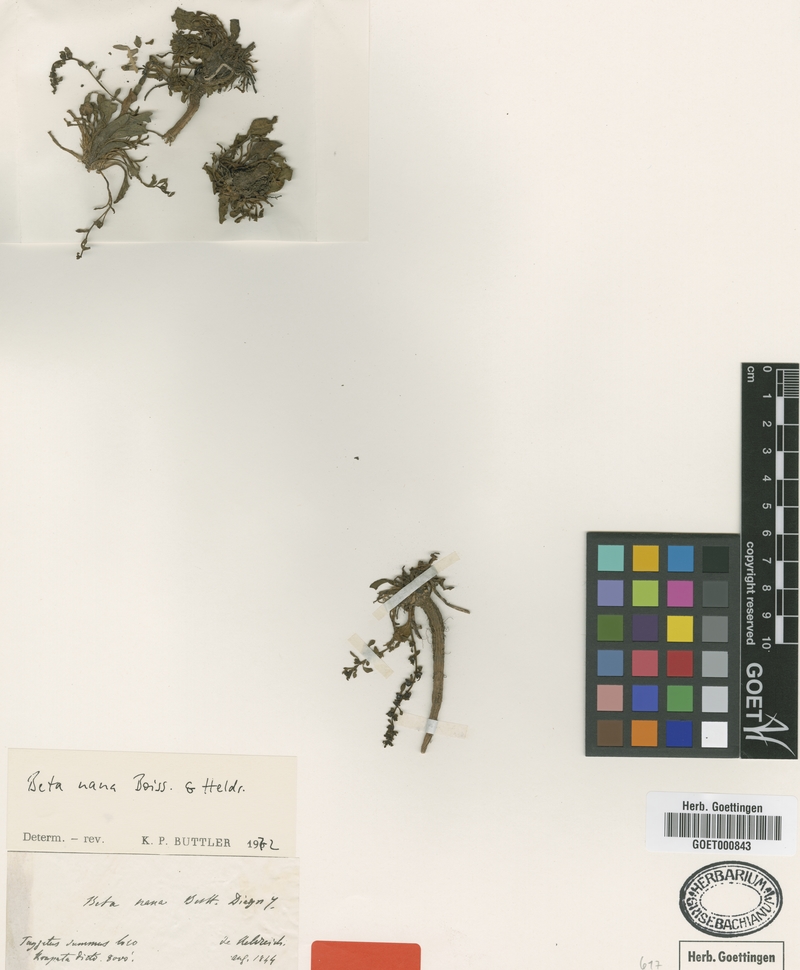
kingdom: Plantae
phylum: Tracheophyta
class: Magnoliopsida
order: Caryophyllales
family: Amaranthaceae
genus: Beta
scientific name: Beta nana
